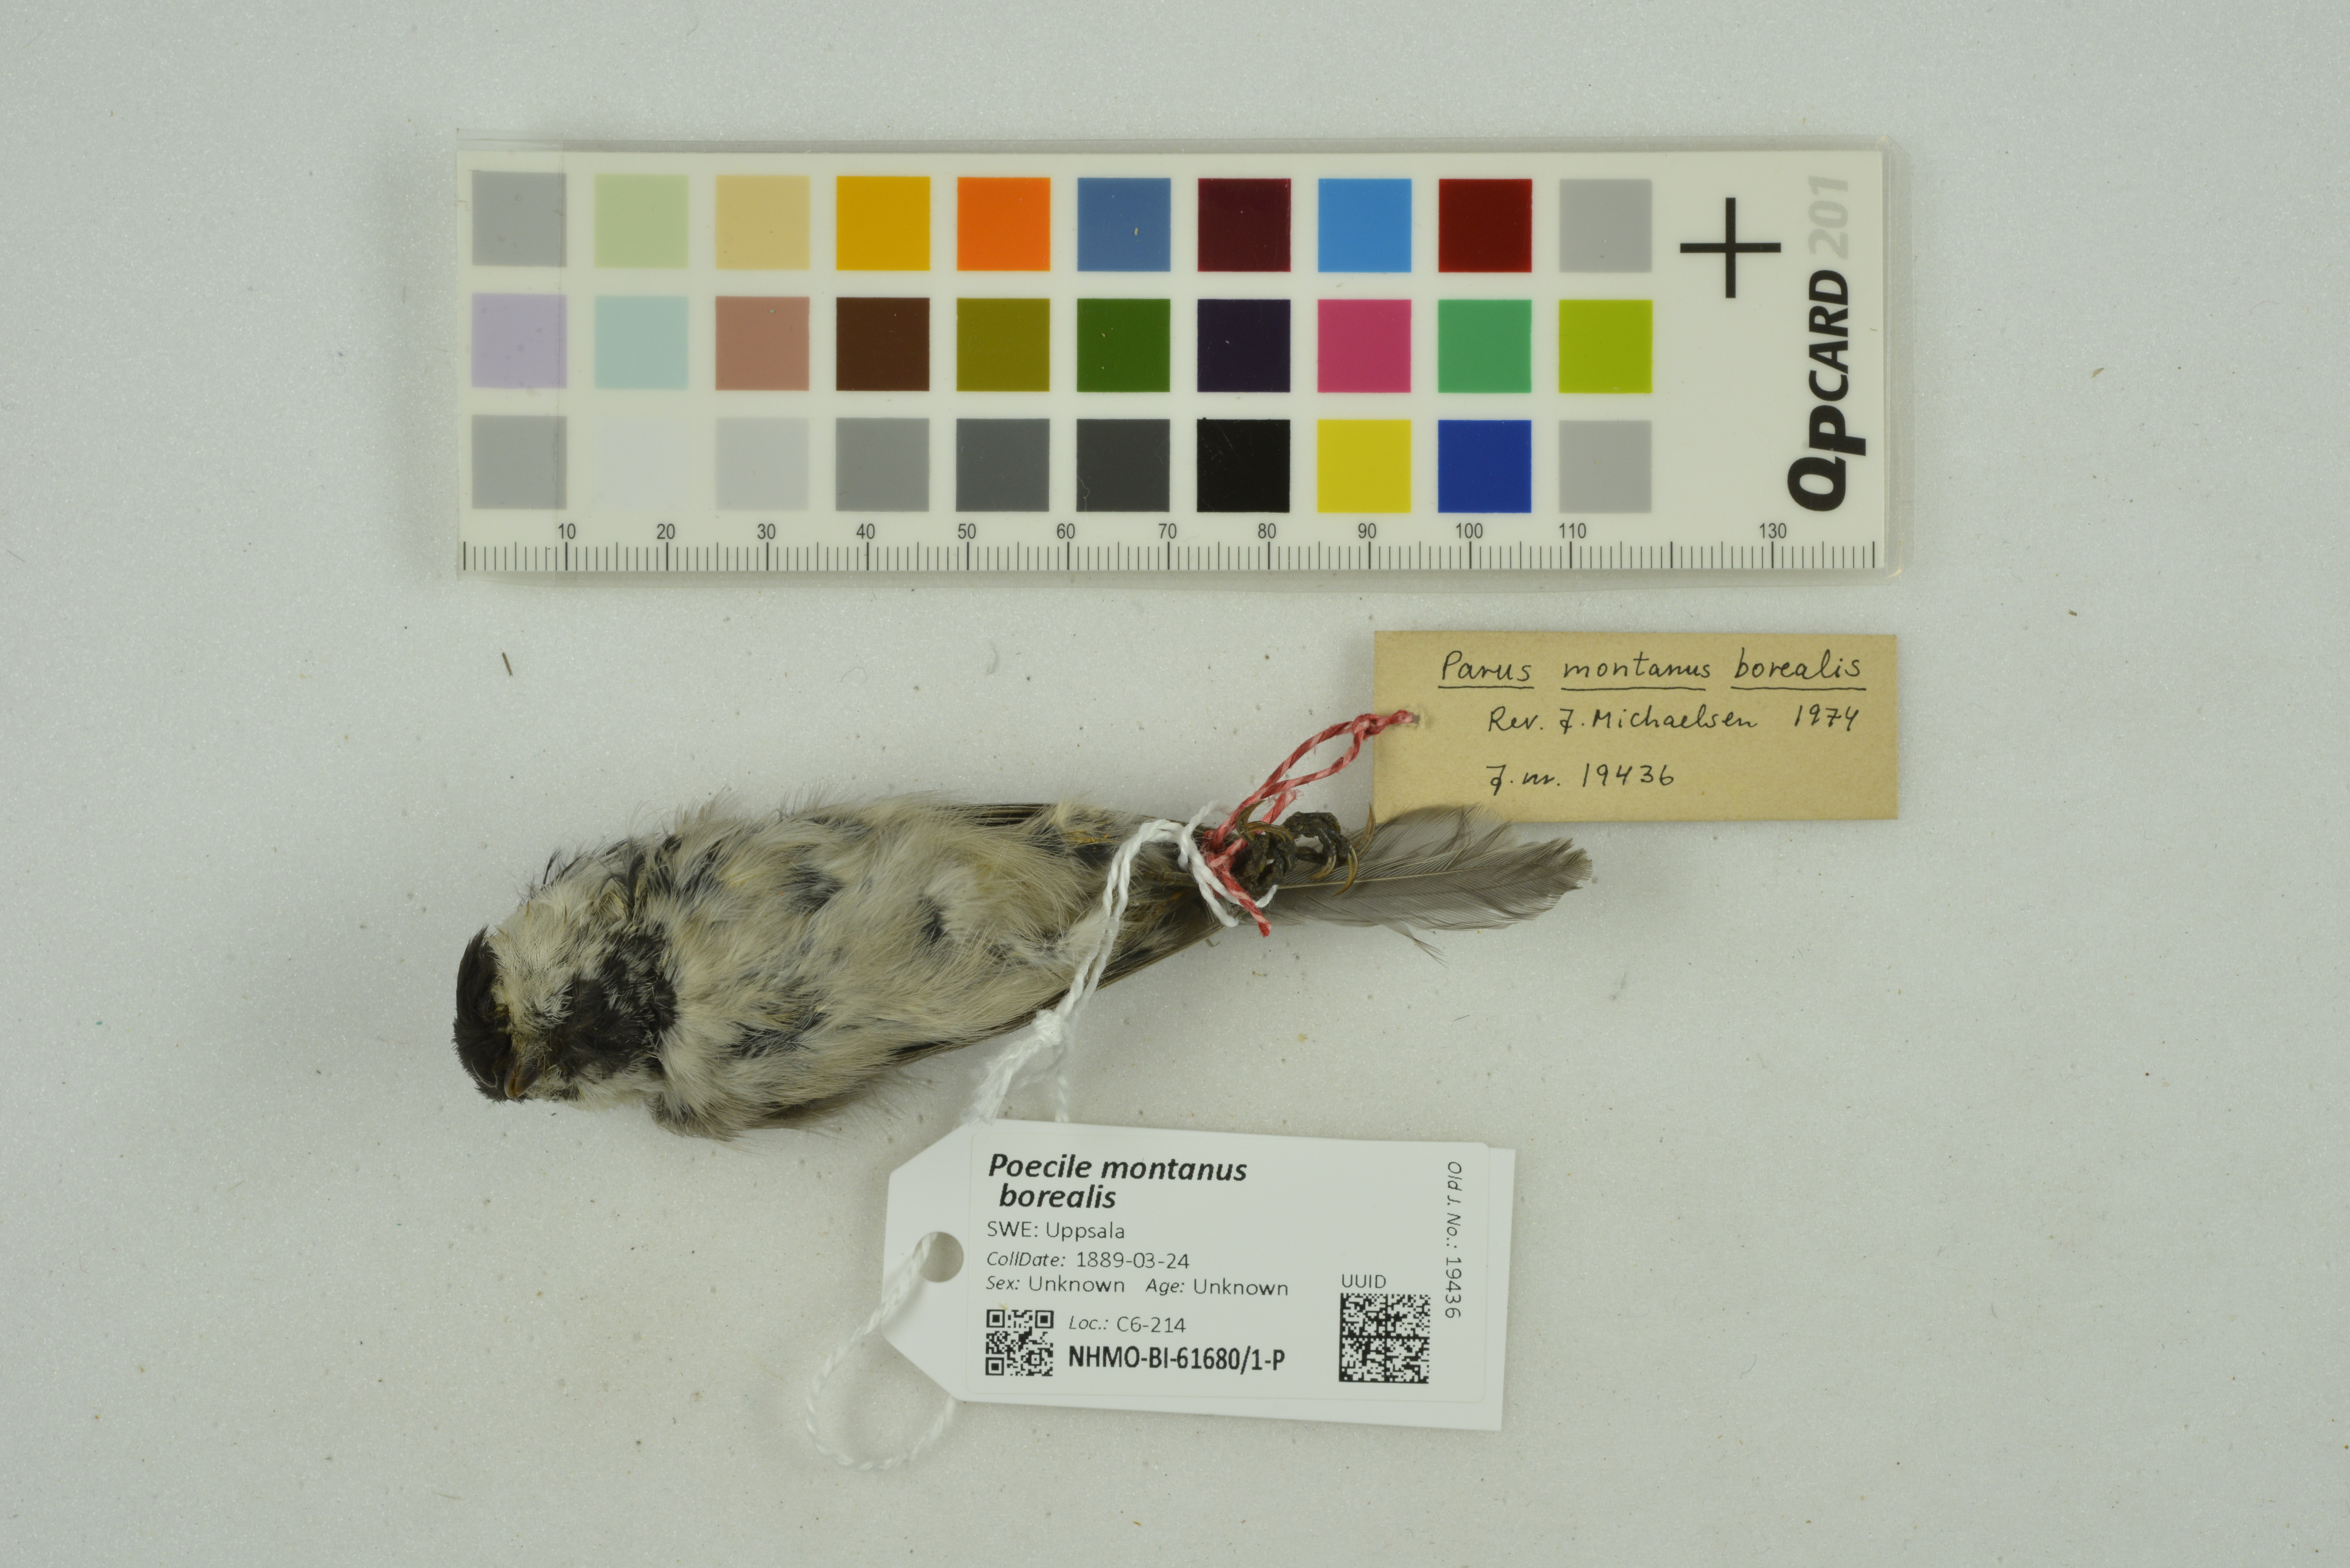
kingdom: Animalia
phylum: Chordata
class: Aves
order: Passeriformes
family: Paridae
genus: Poecile
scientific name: Poecile montanus
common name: Willow tit
